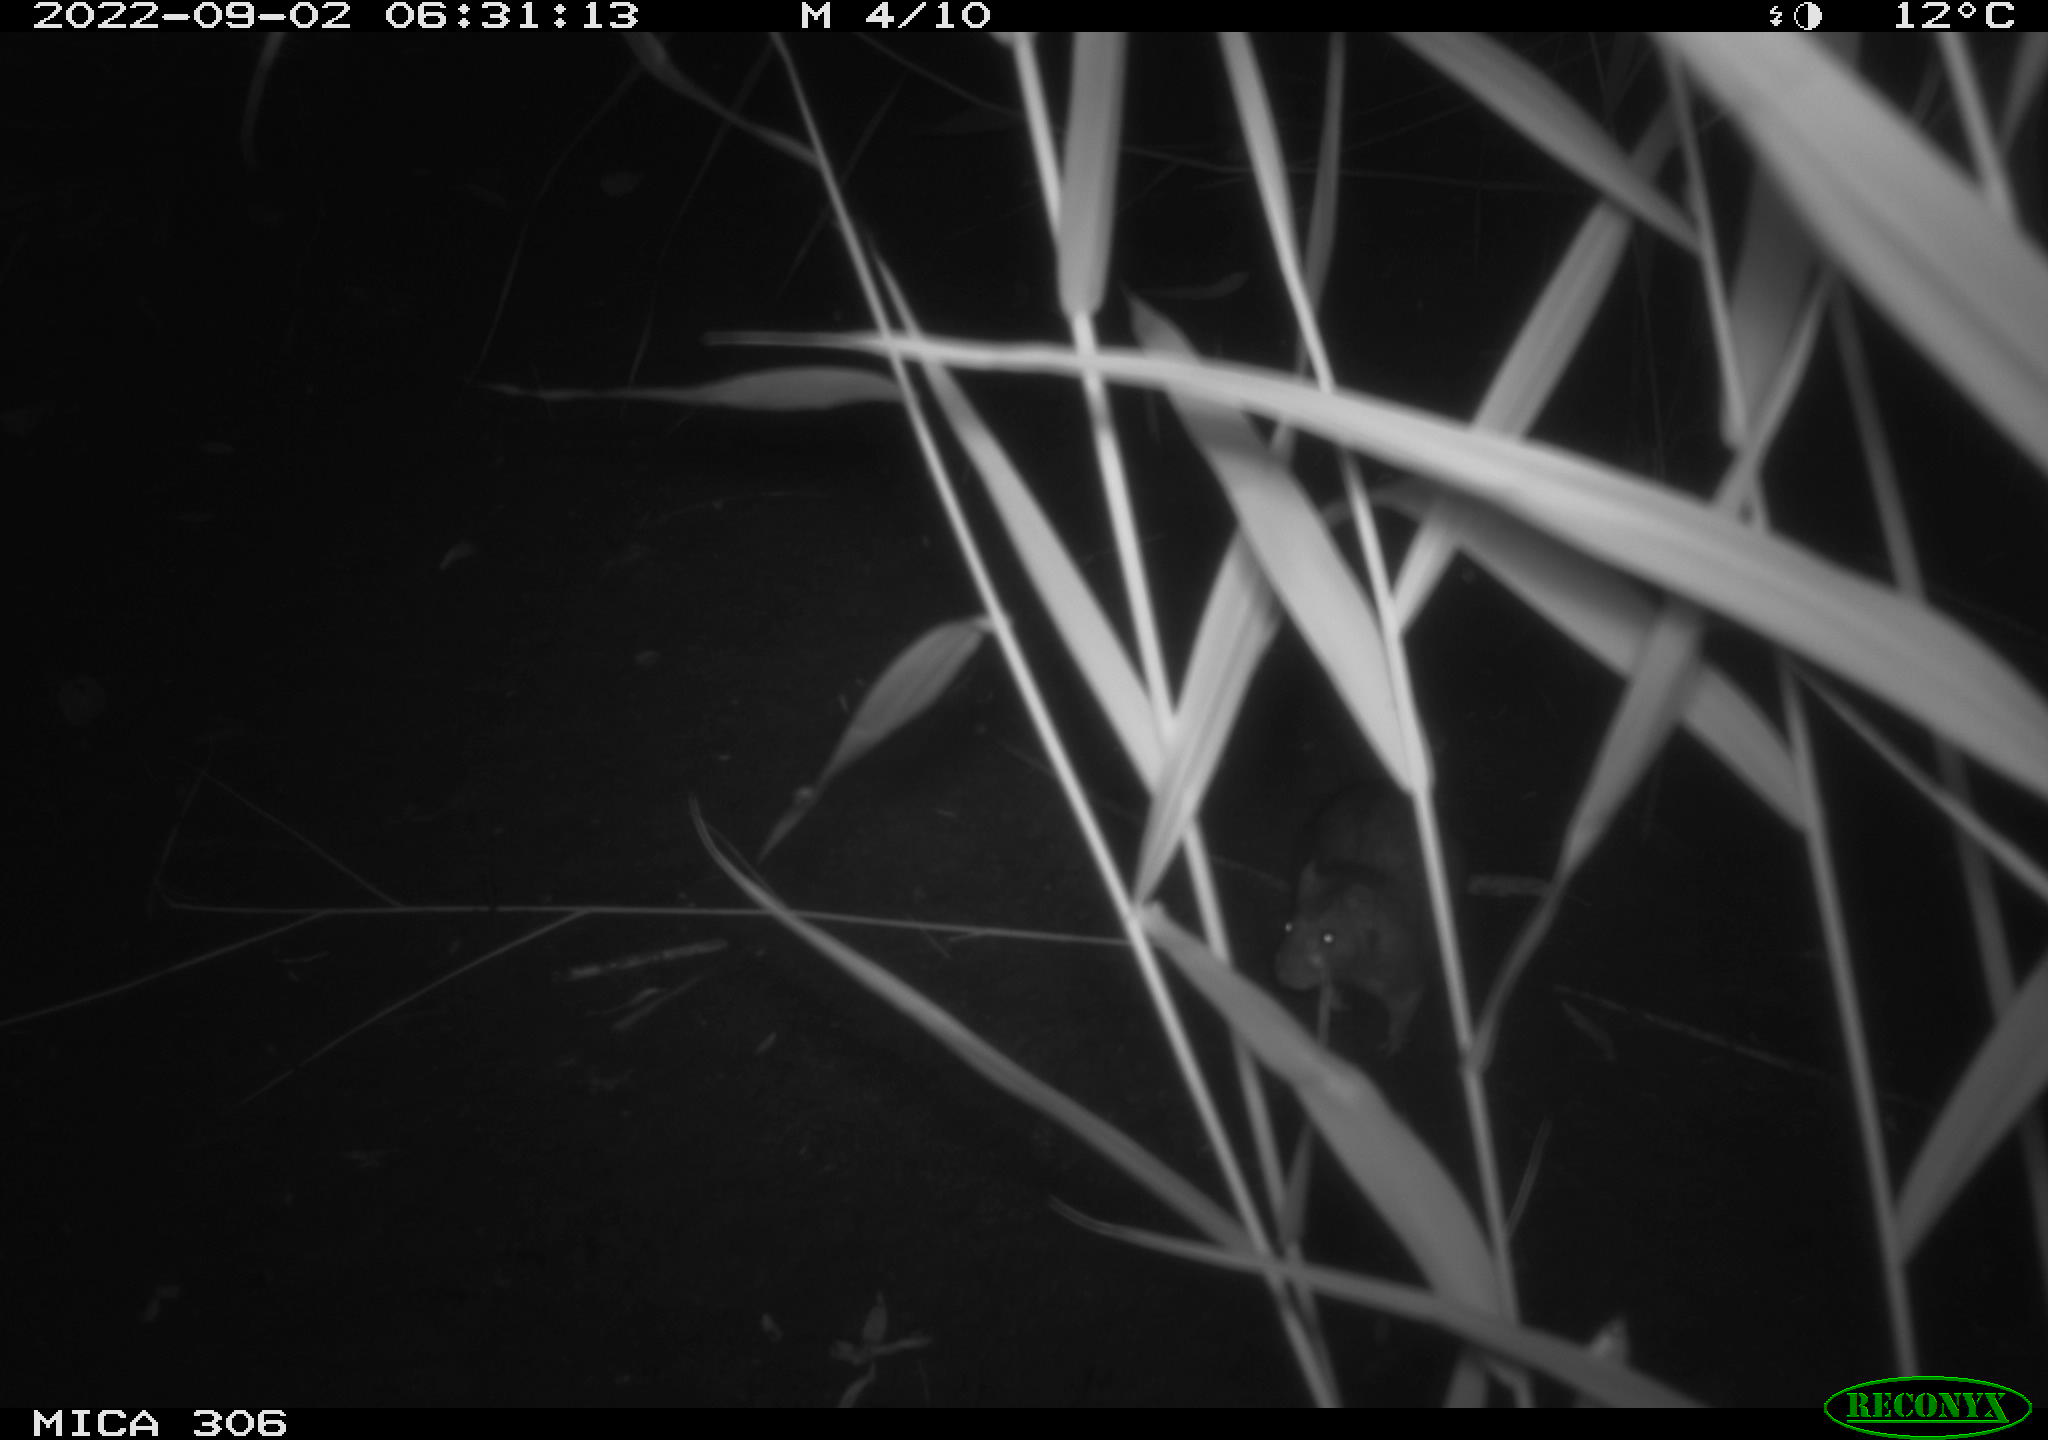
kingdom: Animalia
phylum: Chordata
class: Mammalia
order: Rodentia
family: Muridae
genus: Rattus
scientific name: Rattus norvegicus
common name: Brown rat
